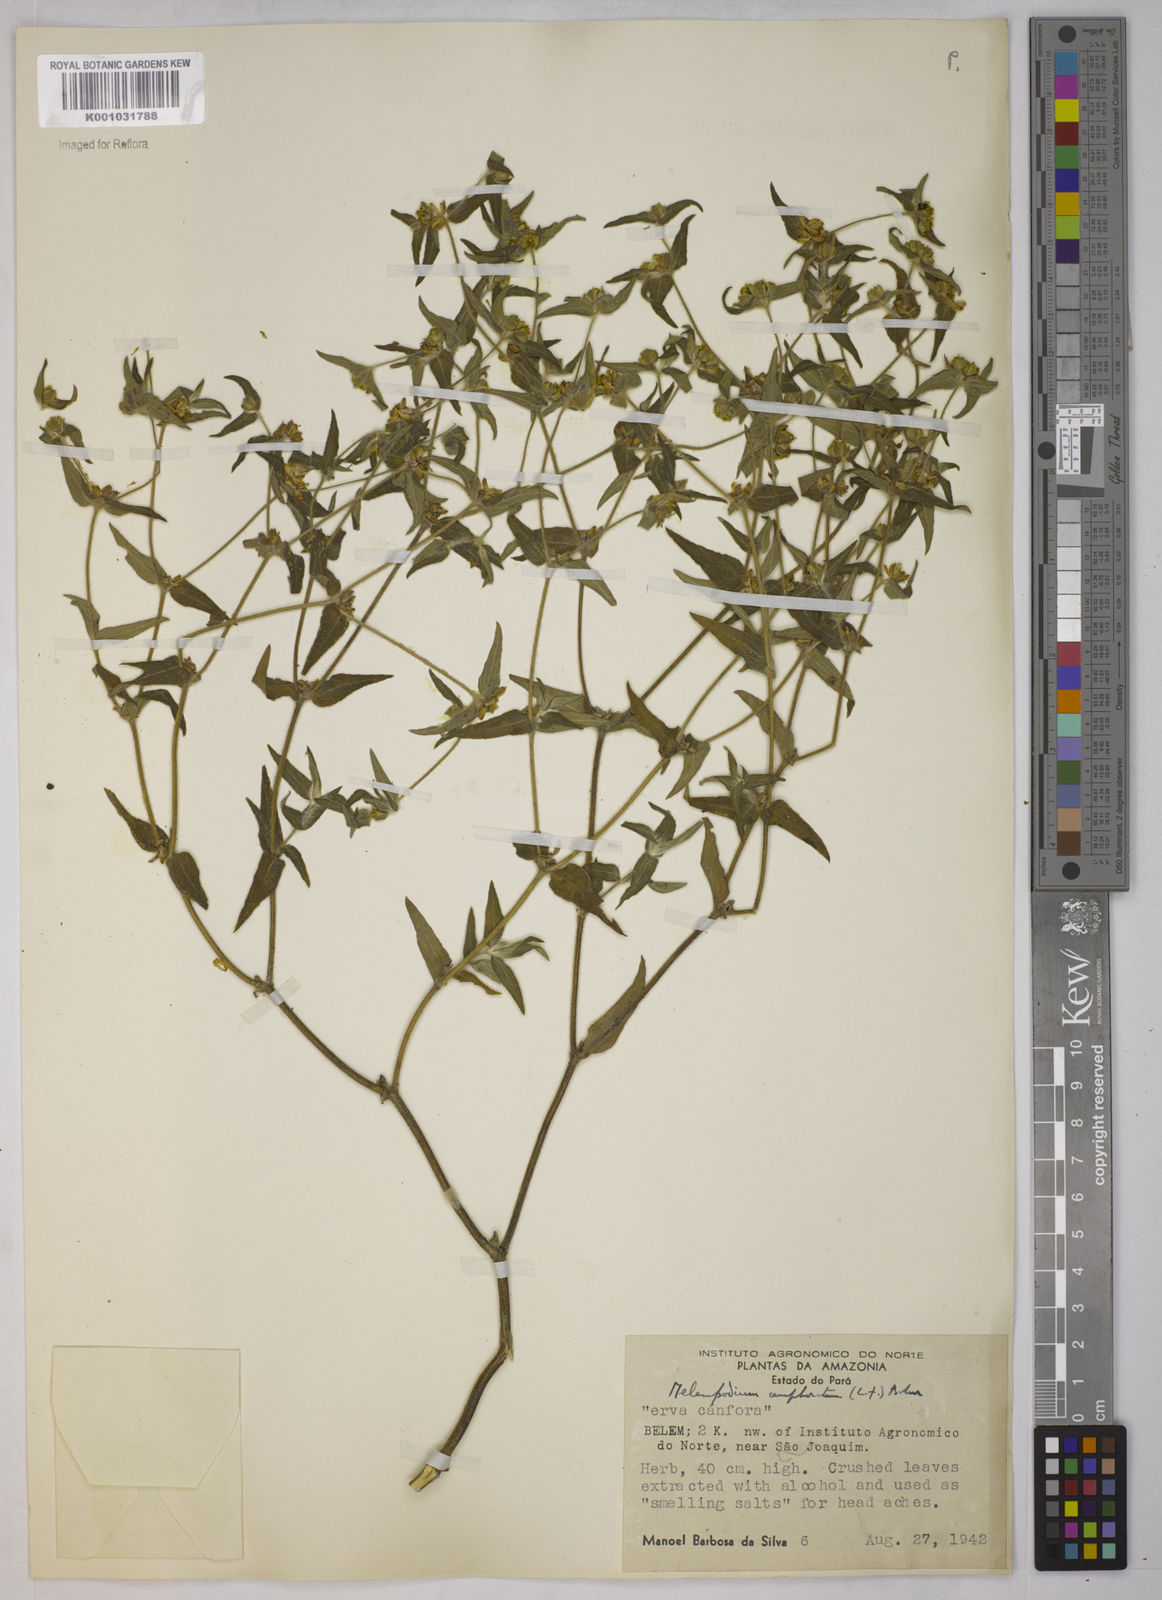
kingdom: Plantae
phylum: Tracheophyta
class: Magnoliopsida
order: Asterales
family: Asteraceae
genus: Unxia
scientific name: Unxia camphorata
